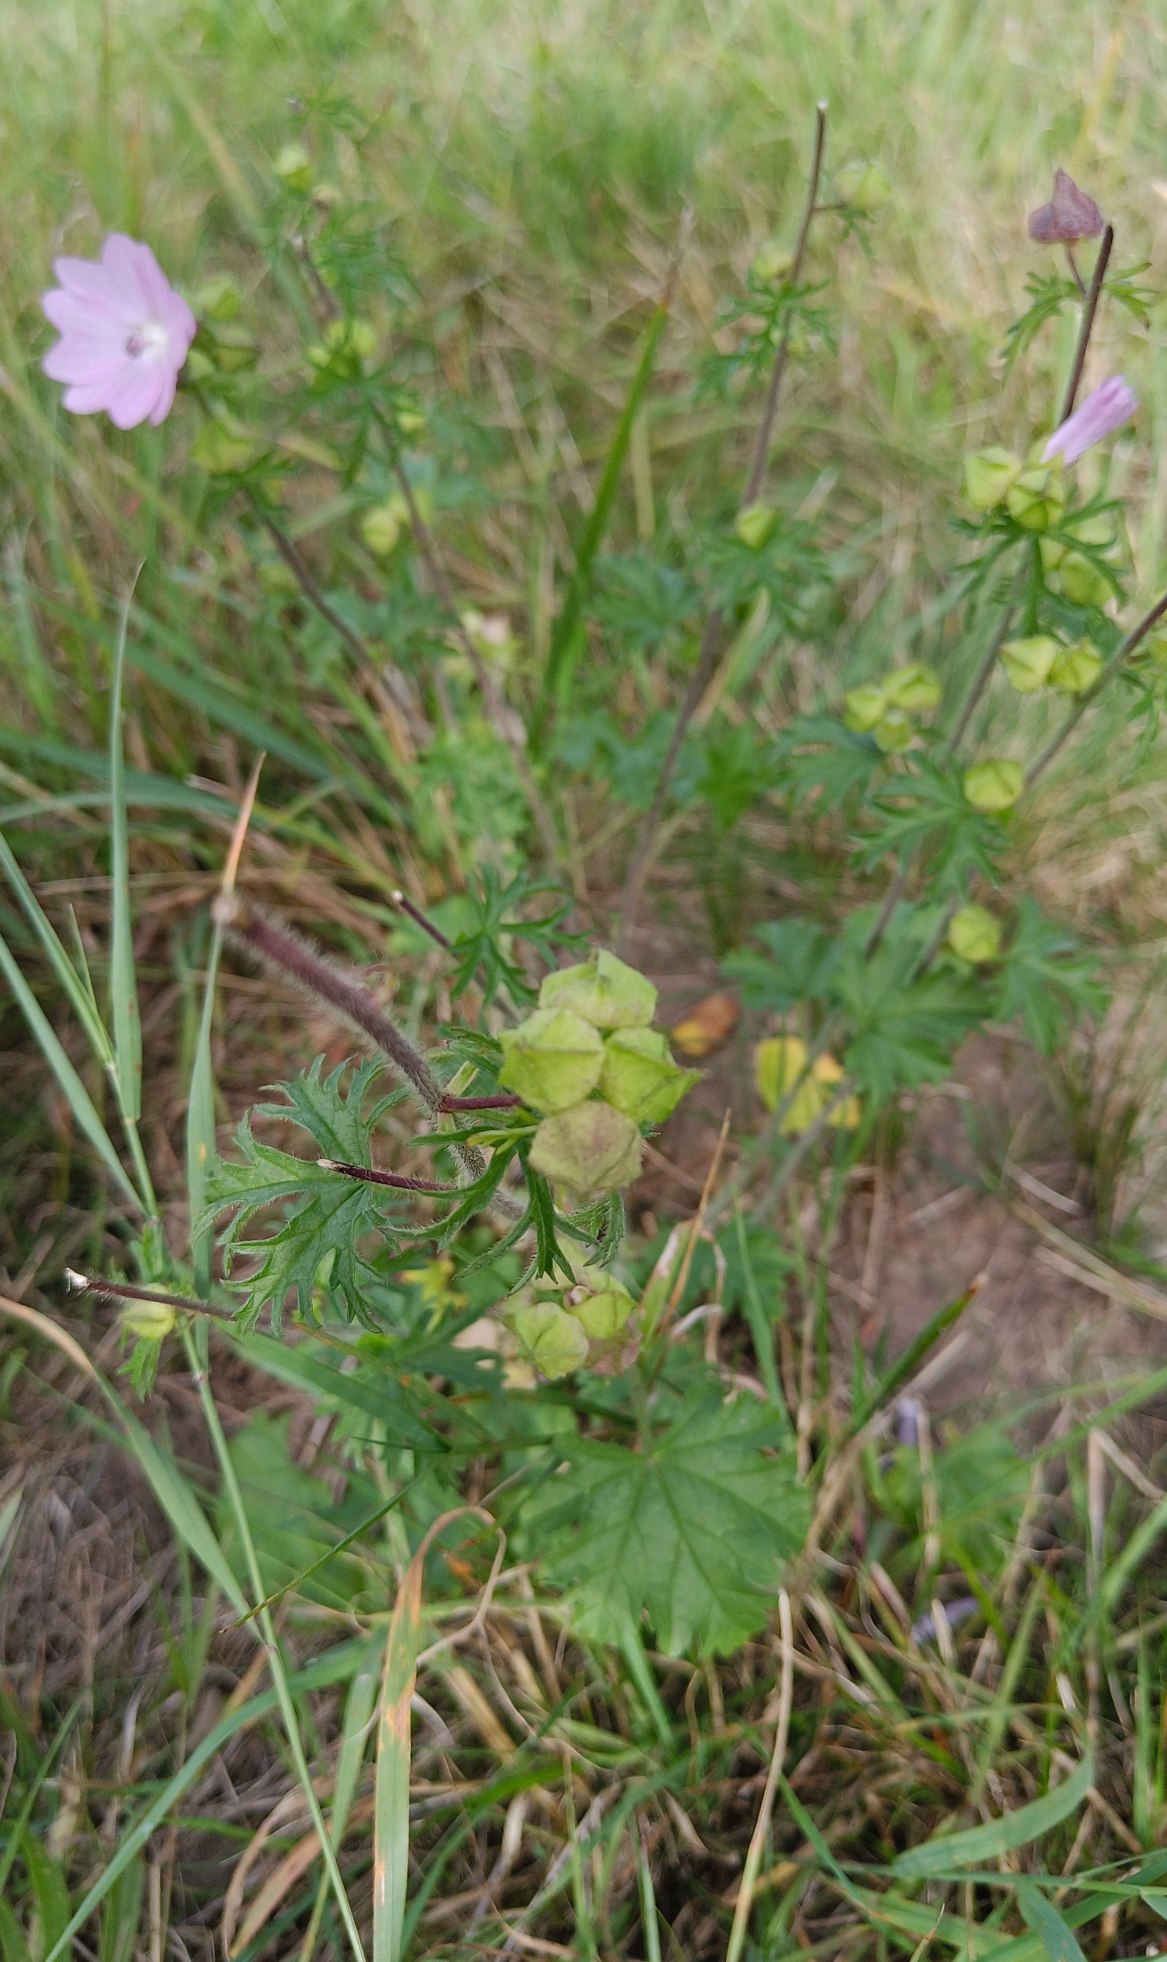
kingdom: Plantae
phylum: Tracheophyta
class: Magnoliopsida
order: Malvales
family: Malvaceae
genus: Malva
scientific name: Malva moschata
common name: Moskus-katost
